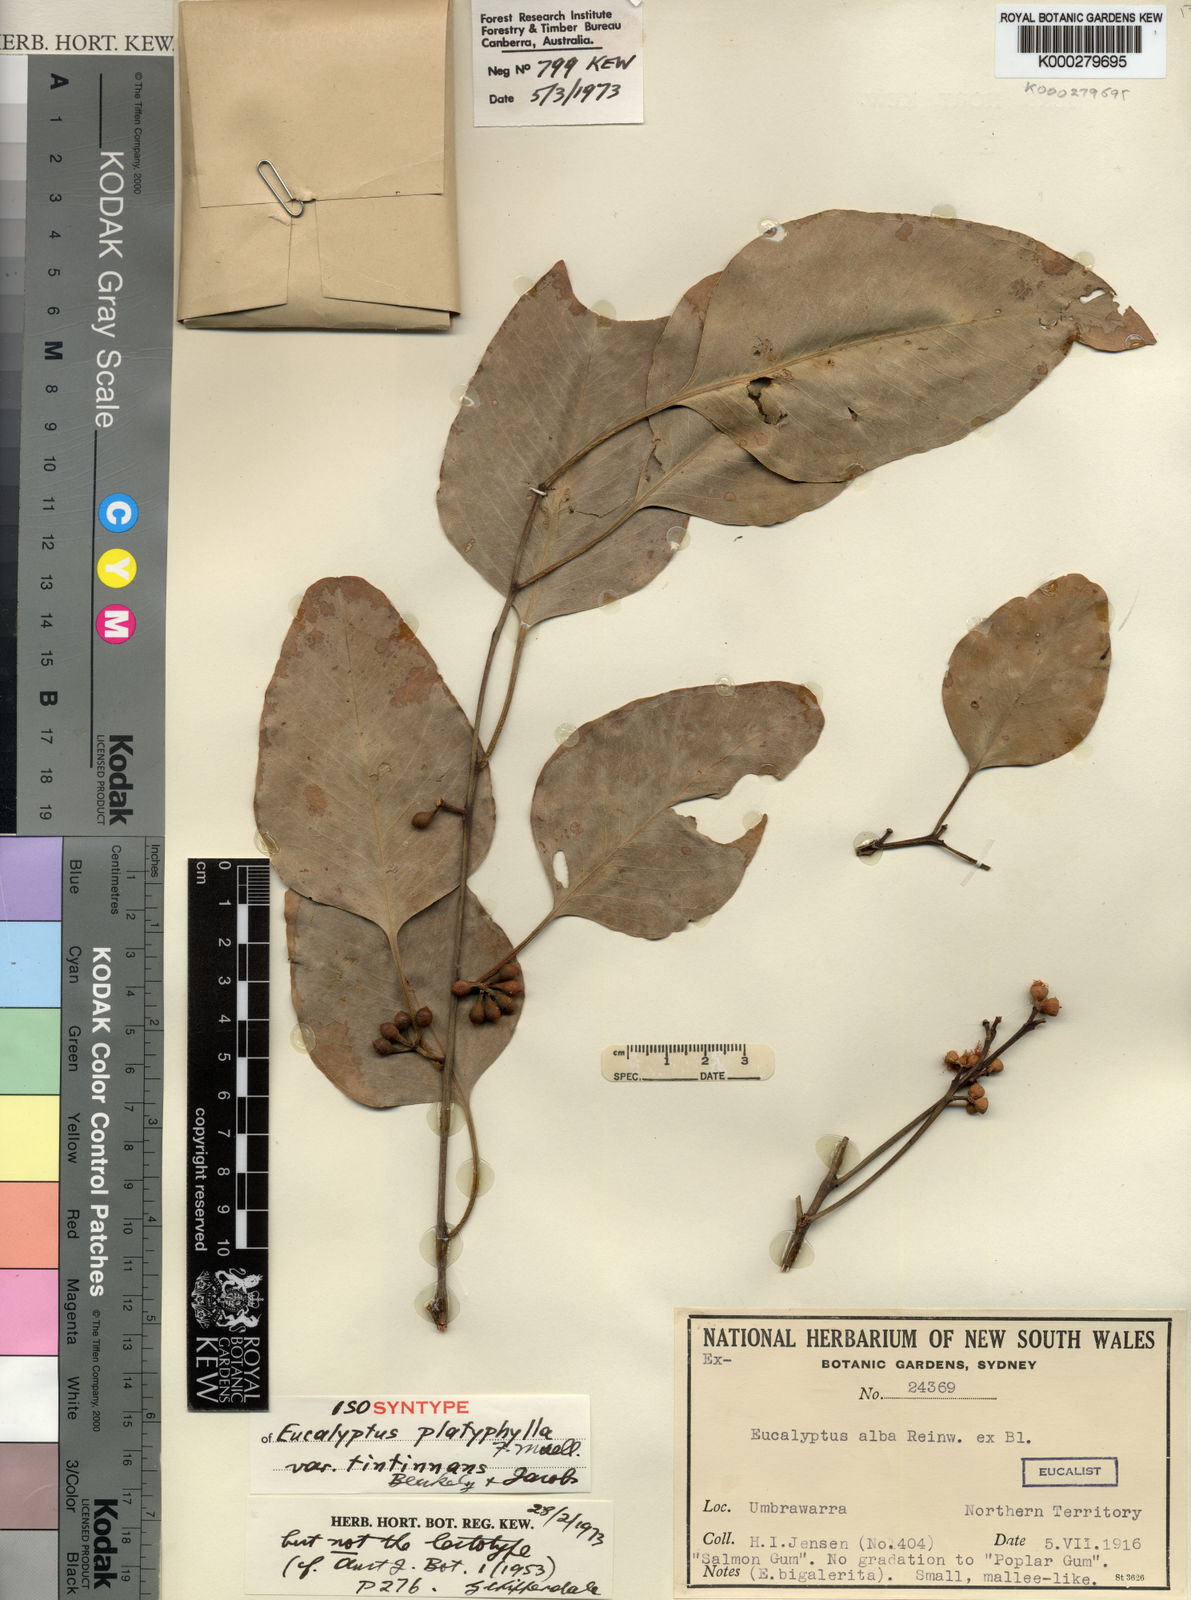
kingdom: Plantae
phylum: Tracheophyta
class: Magnoliopsida
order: Myrtales
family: Myrtaceae
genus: Eucalyptus
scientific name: Eucalyptus tintinnans
